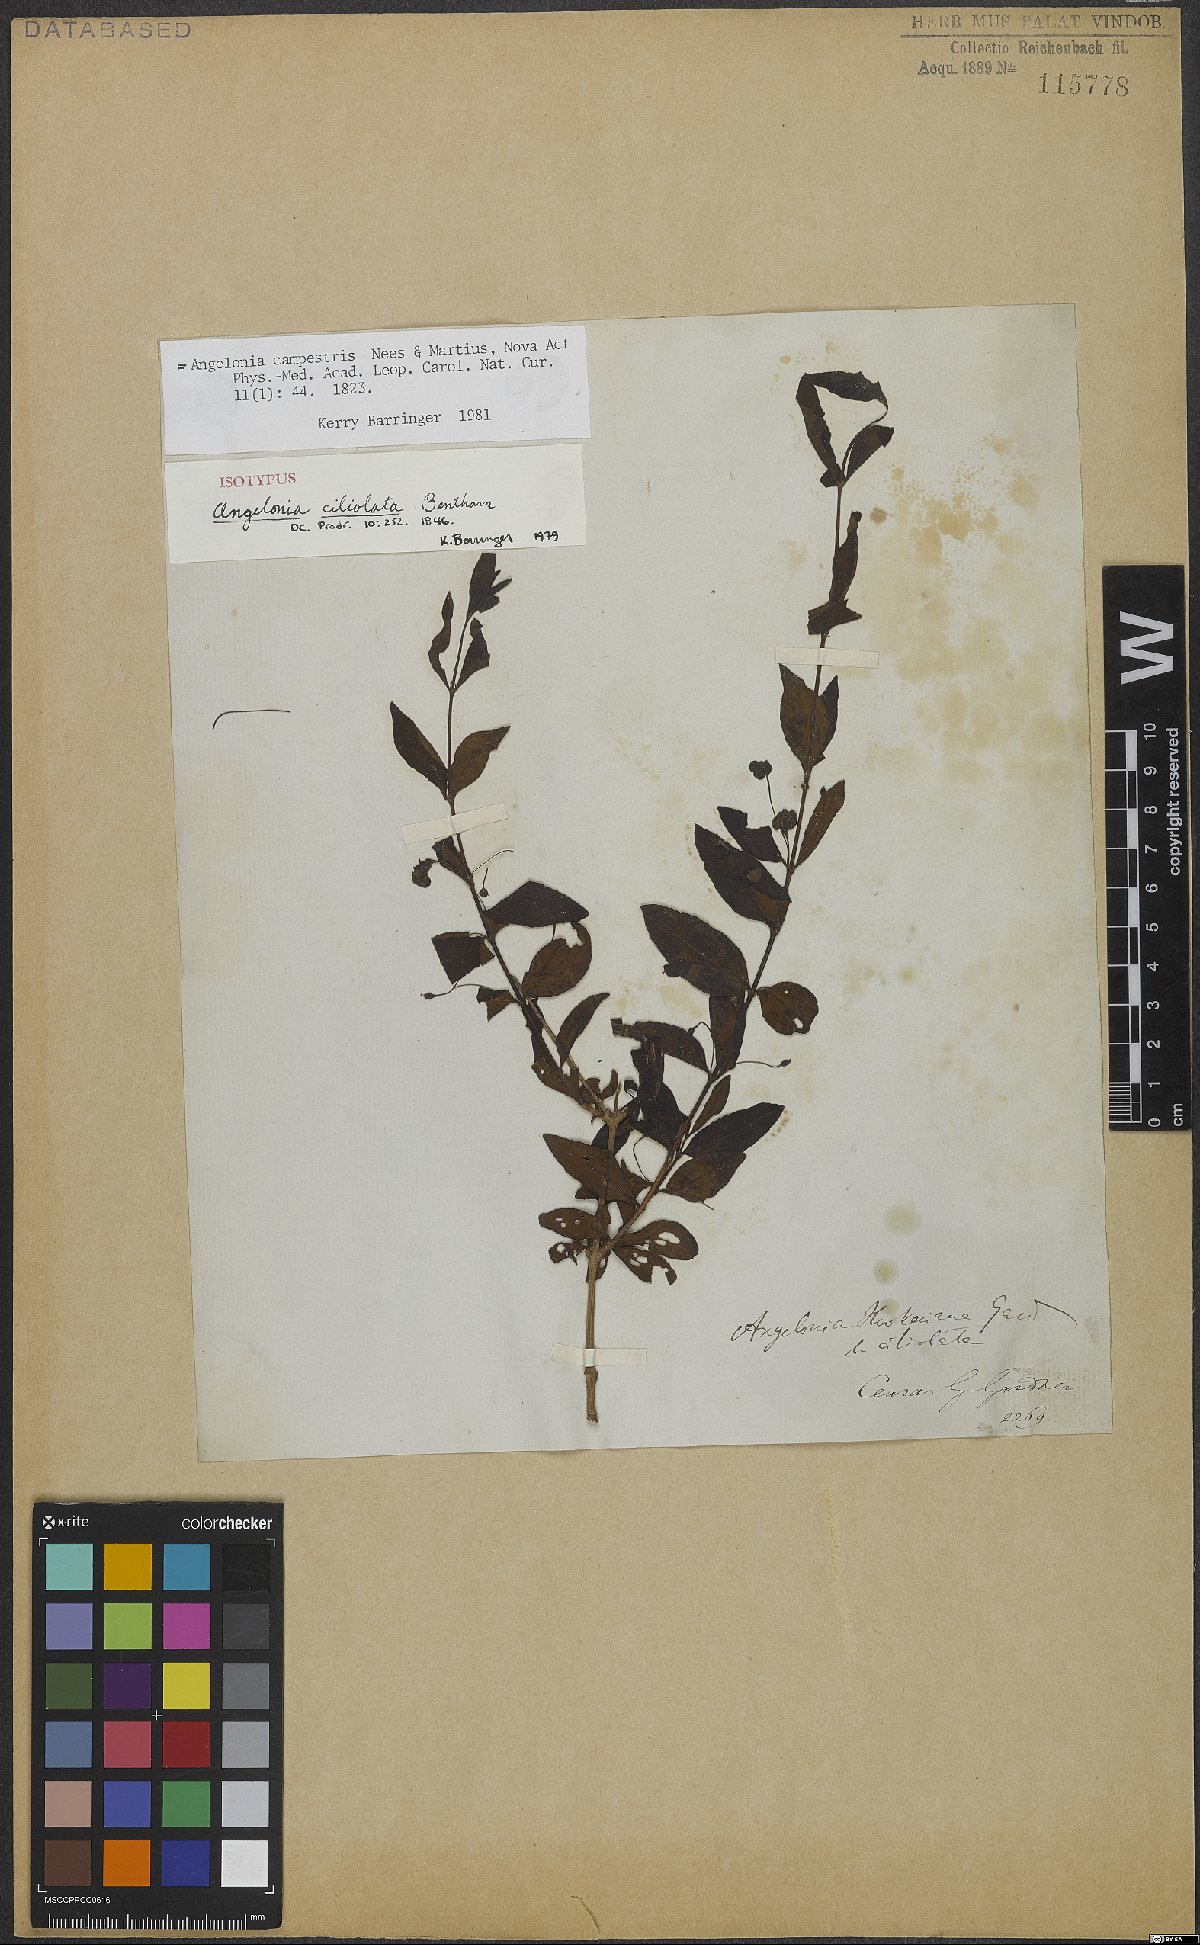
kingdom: Plantae
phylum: Tracheophyta
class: Magnoliopsida
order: Lamiales
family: Plantaginaceae
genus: Angelonia
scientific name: Angelonia campestris
